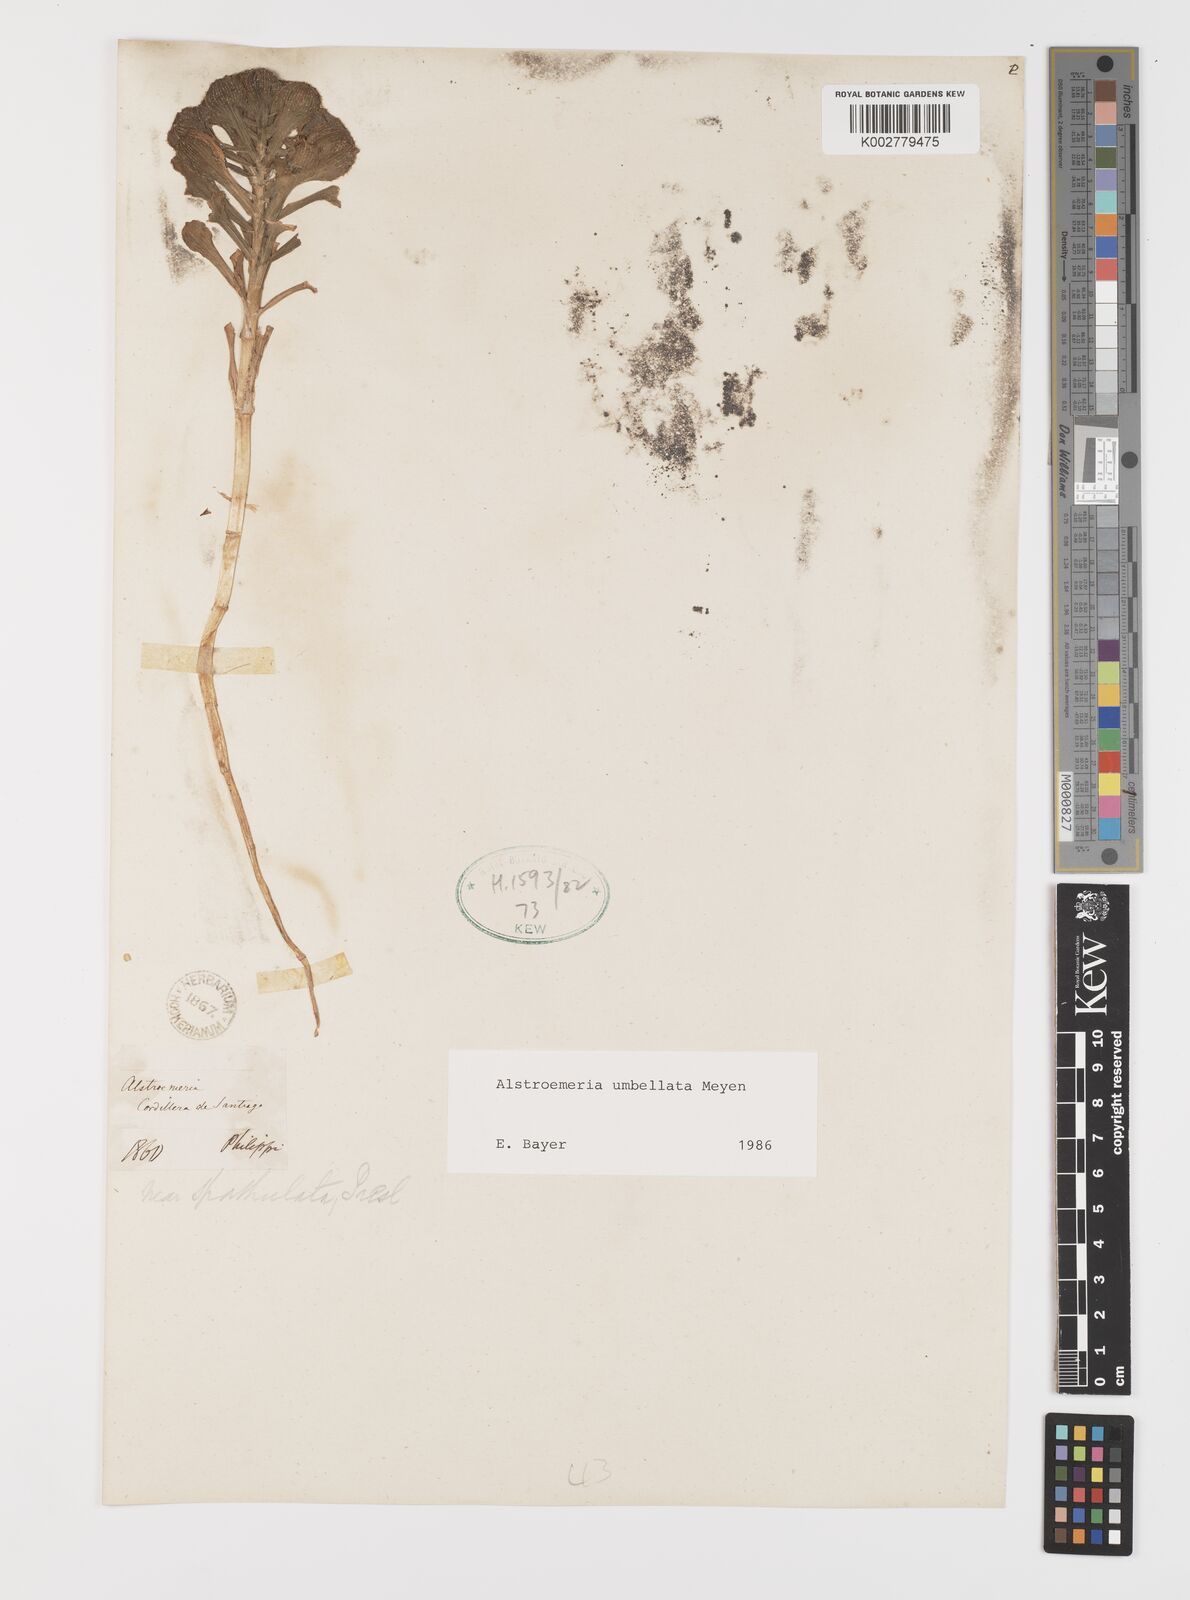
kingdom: Plantae
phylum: Tracheophyta
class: Liliopsida
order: Liliales
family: Alstroemeriaceae
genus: Alstroemeria
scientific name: Alstroemeria umbellata
